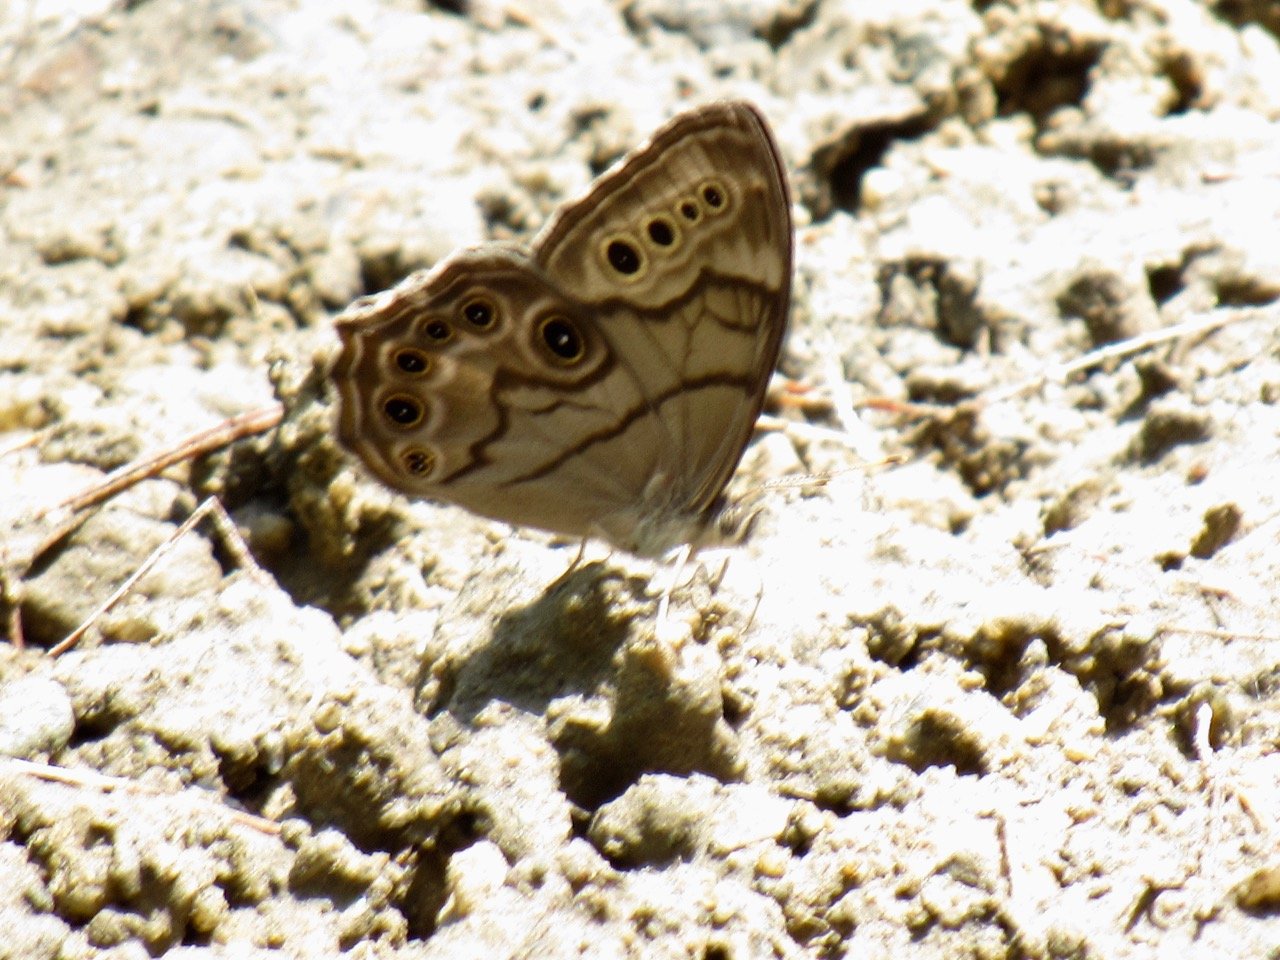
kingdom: Animalia
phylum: Arthropoda
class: Insecta
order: Lepidoptera
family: Nymphalidae
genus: Lethe
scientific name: Lethe anthedon
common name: Northern Pearly-Eye
